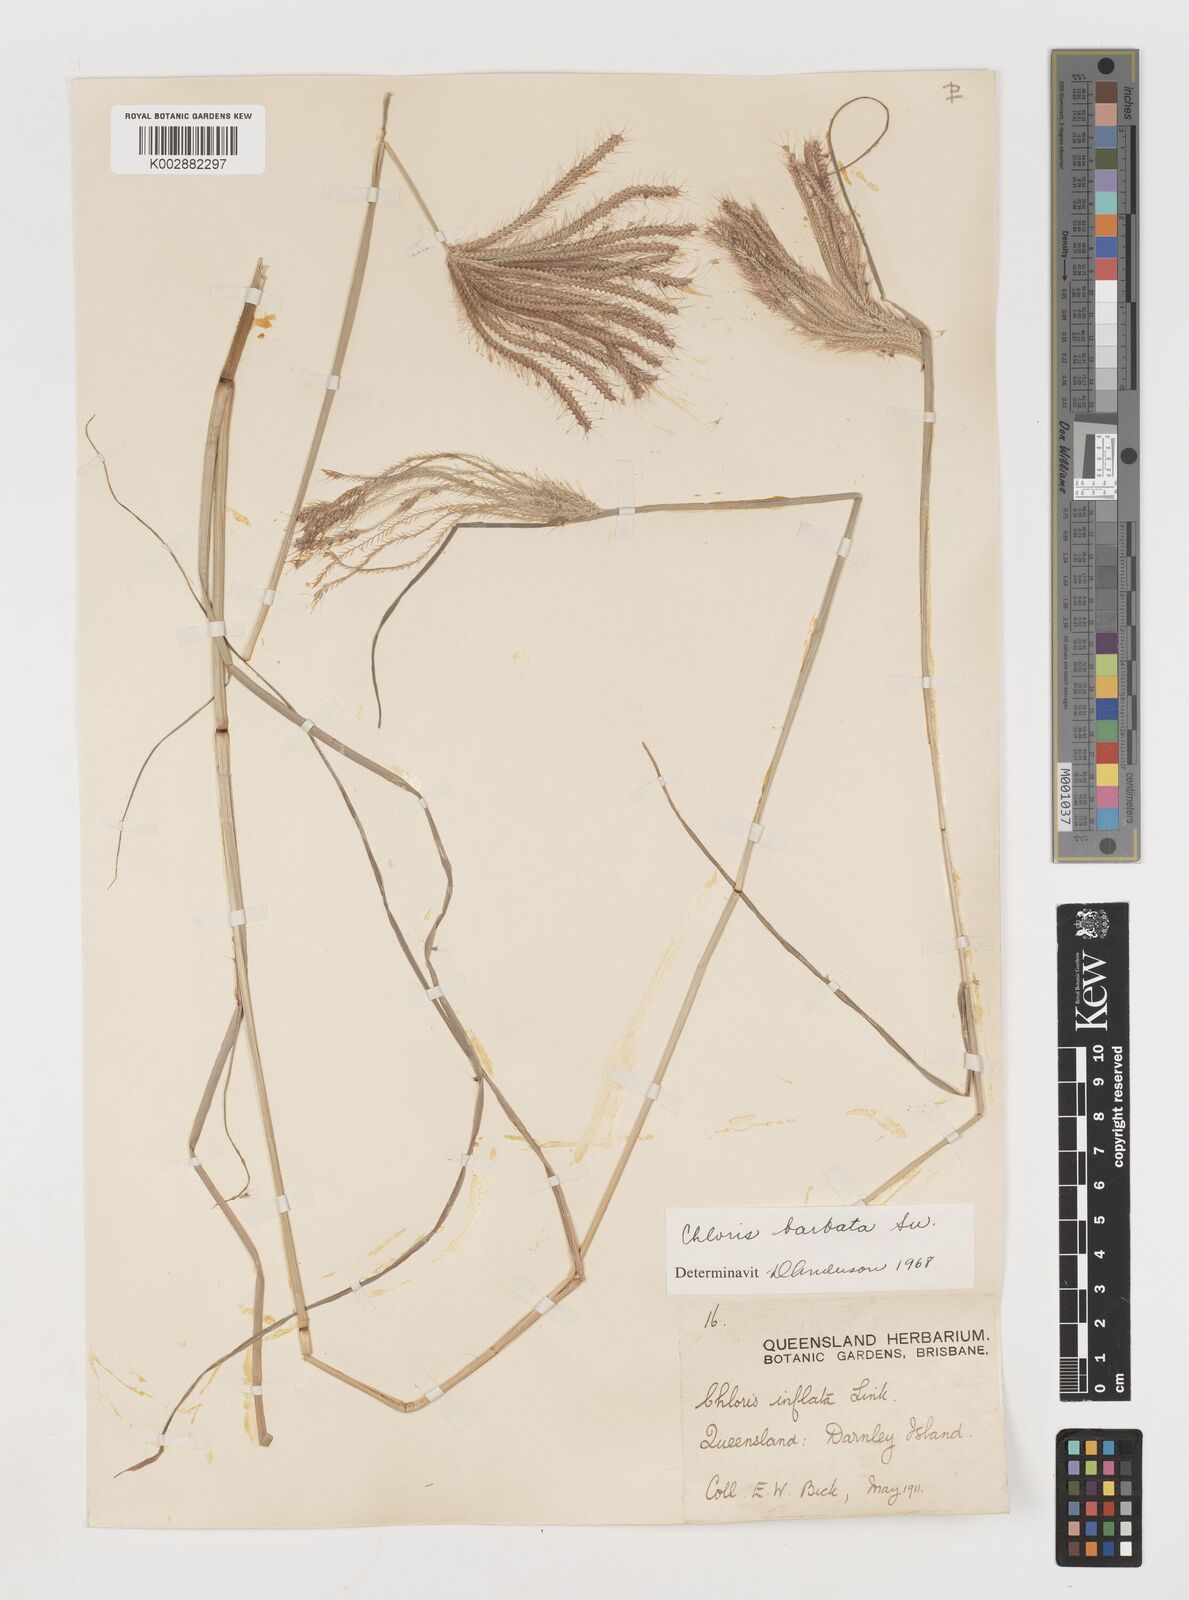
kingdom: Plantae
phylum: Tracheophyta
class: Liliopsida
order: Poales
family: Poaceae
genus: Chloris
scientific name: Chloris barbata
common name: Swollen fingergrass
